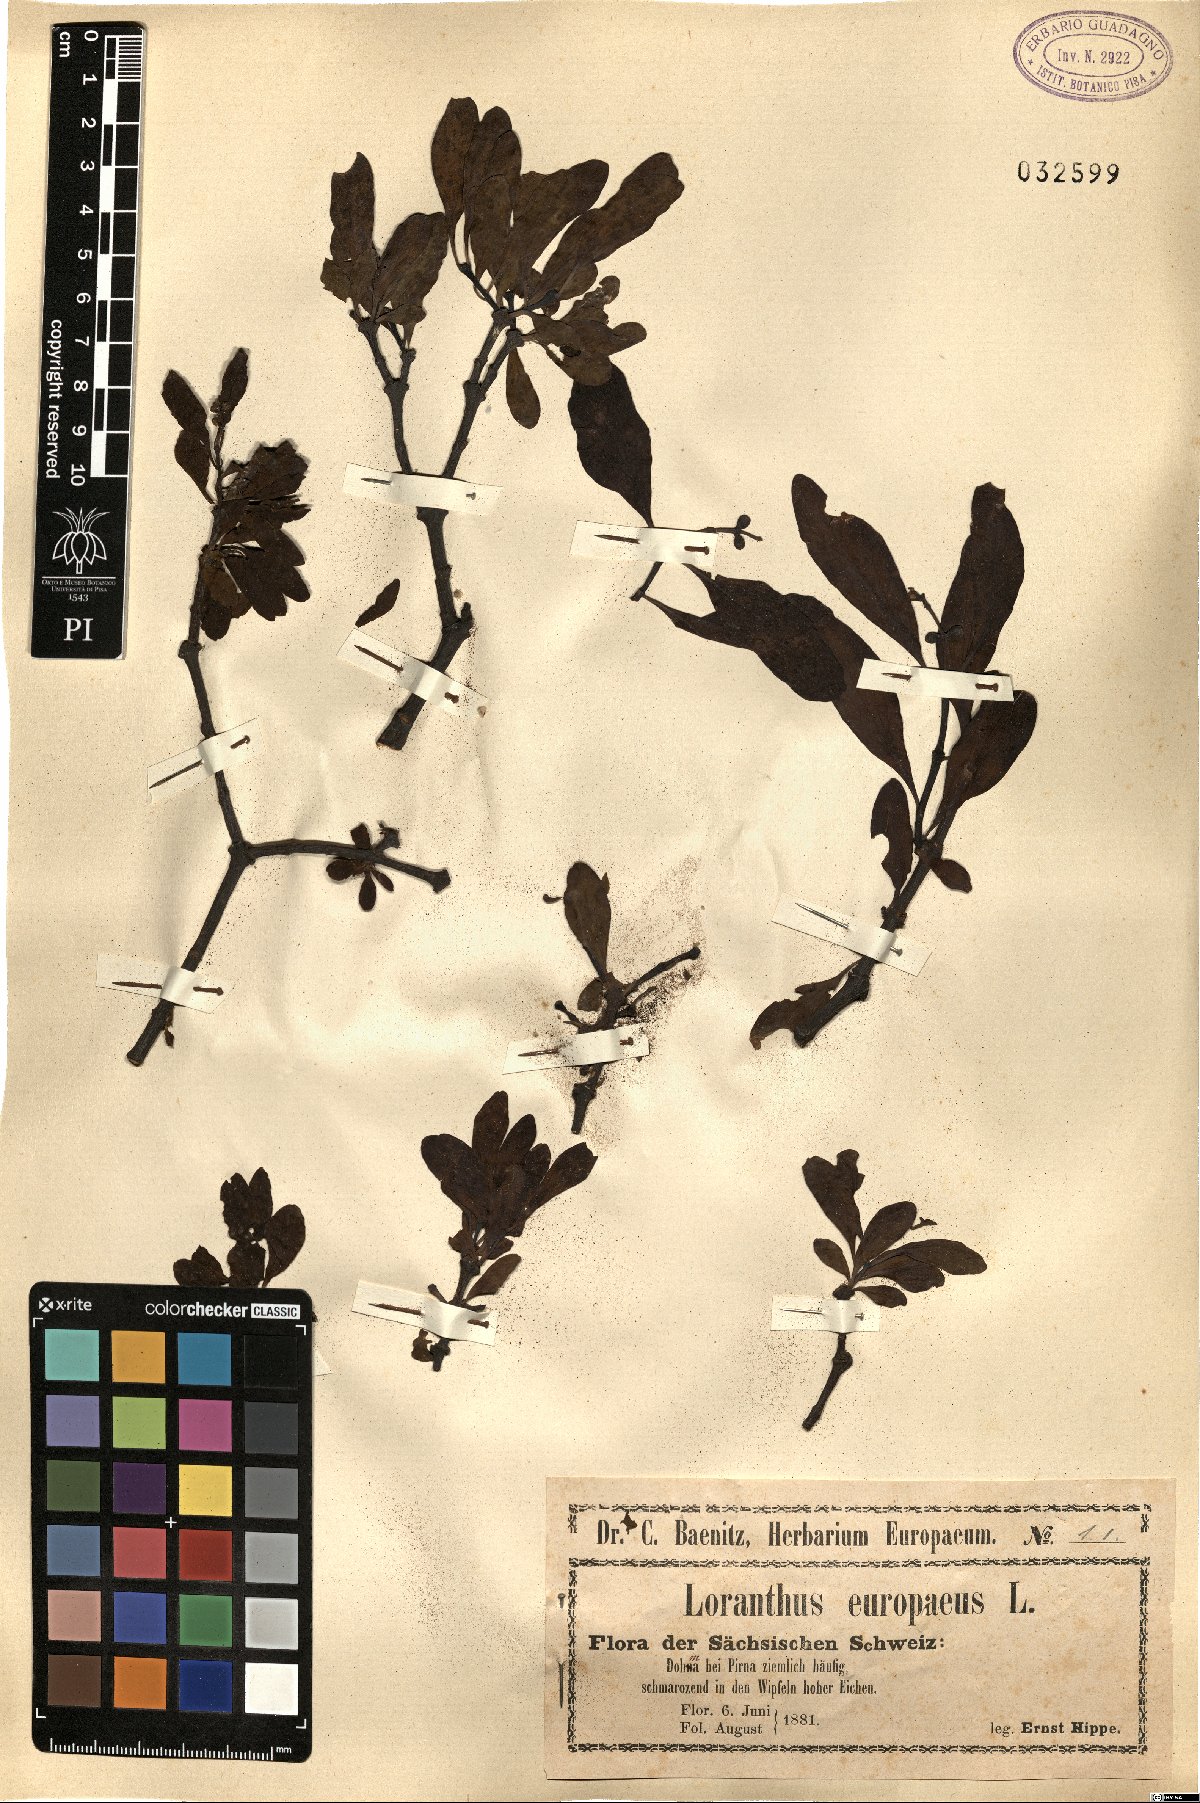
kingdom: Plantae
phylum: Tracheophyta
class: Magnoliopsida
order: Santalales
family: Loranthaceae
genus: Loranthus
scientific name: Loranthus europaeus
